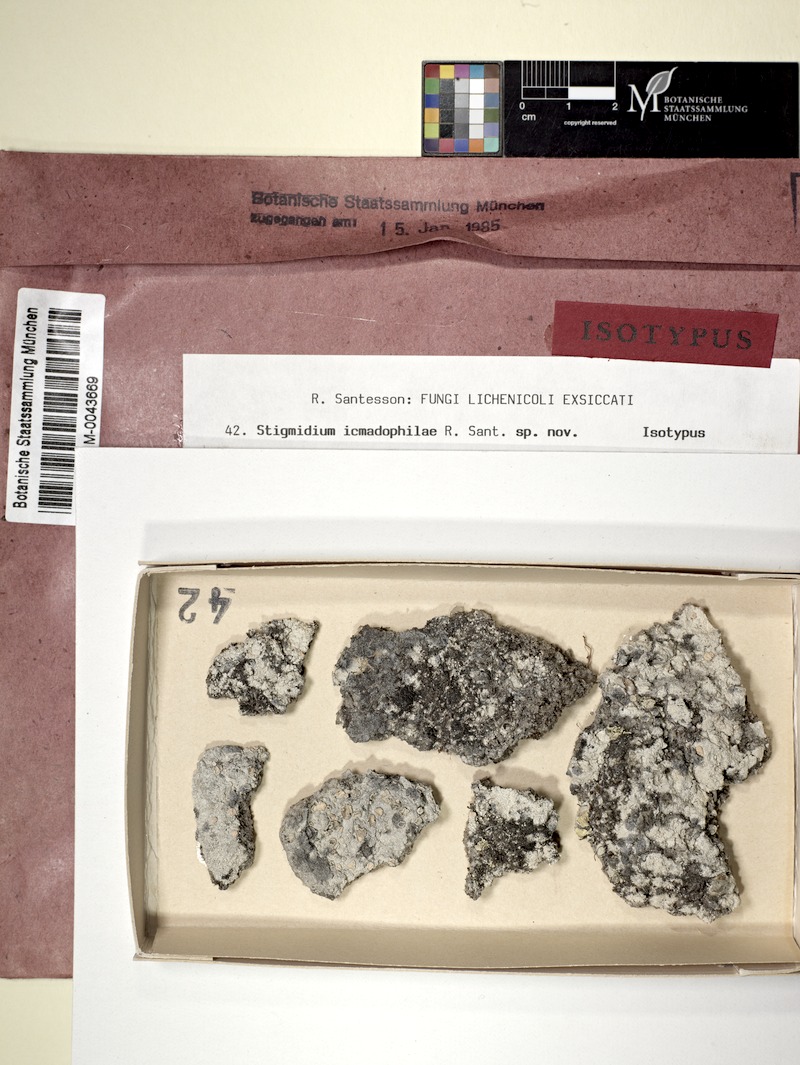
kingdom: Fungi
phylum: Ascomycota
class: Lecanoromycetes
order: Pertusariales
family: Icmadophilaceae
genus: Icmadophila
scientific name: Icmadophila ericetorum
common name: Candy lichen
